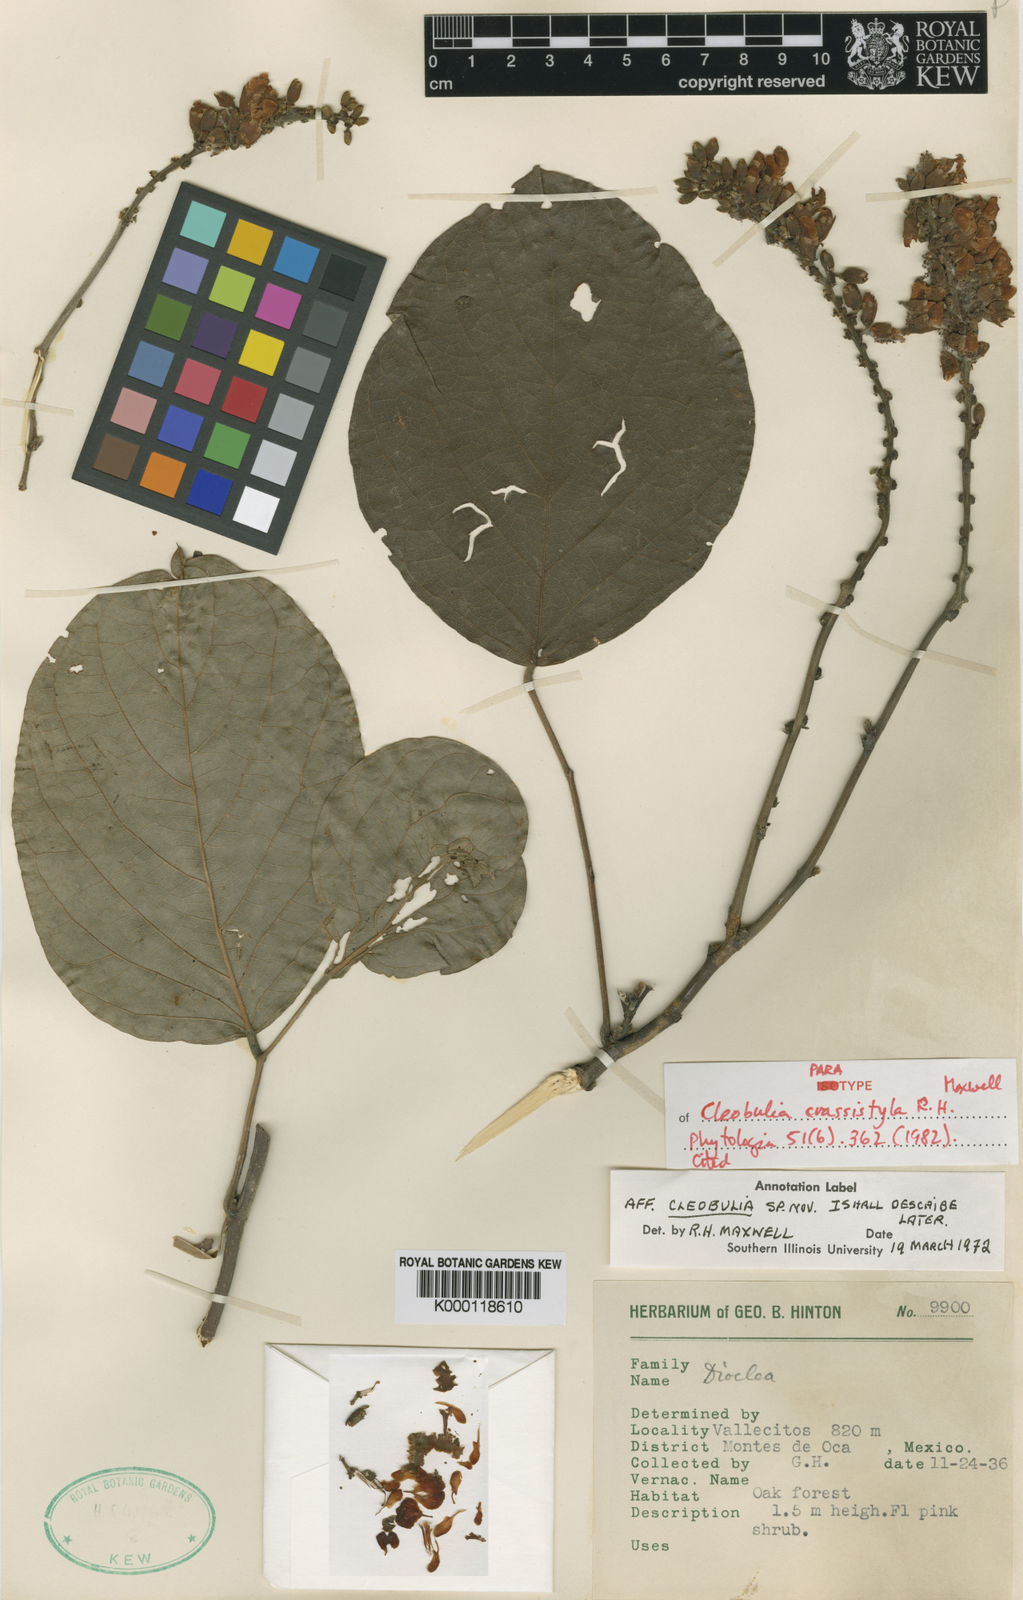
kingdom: Plantae
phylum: Tracheophyta
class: Magnoliopsida
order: Fabales
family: Fabaceae
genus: Cleobulia
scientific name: Cleobulia crassistyla
